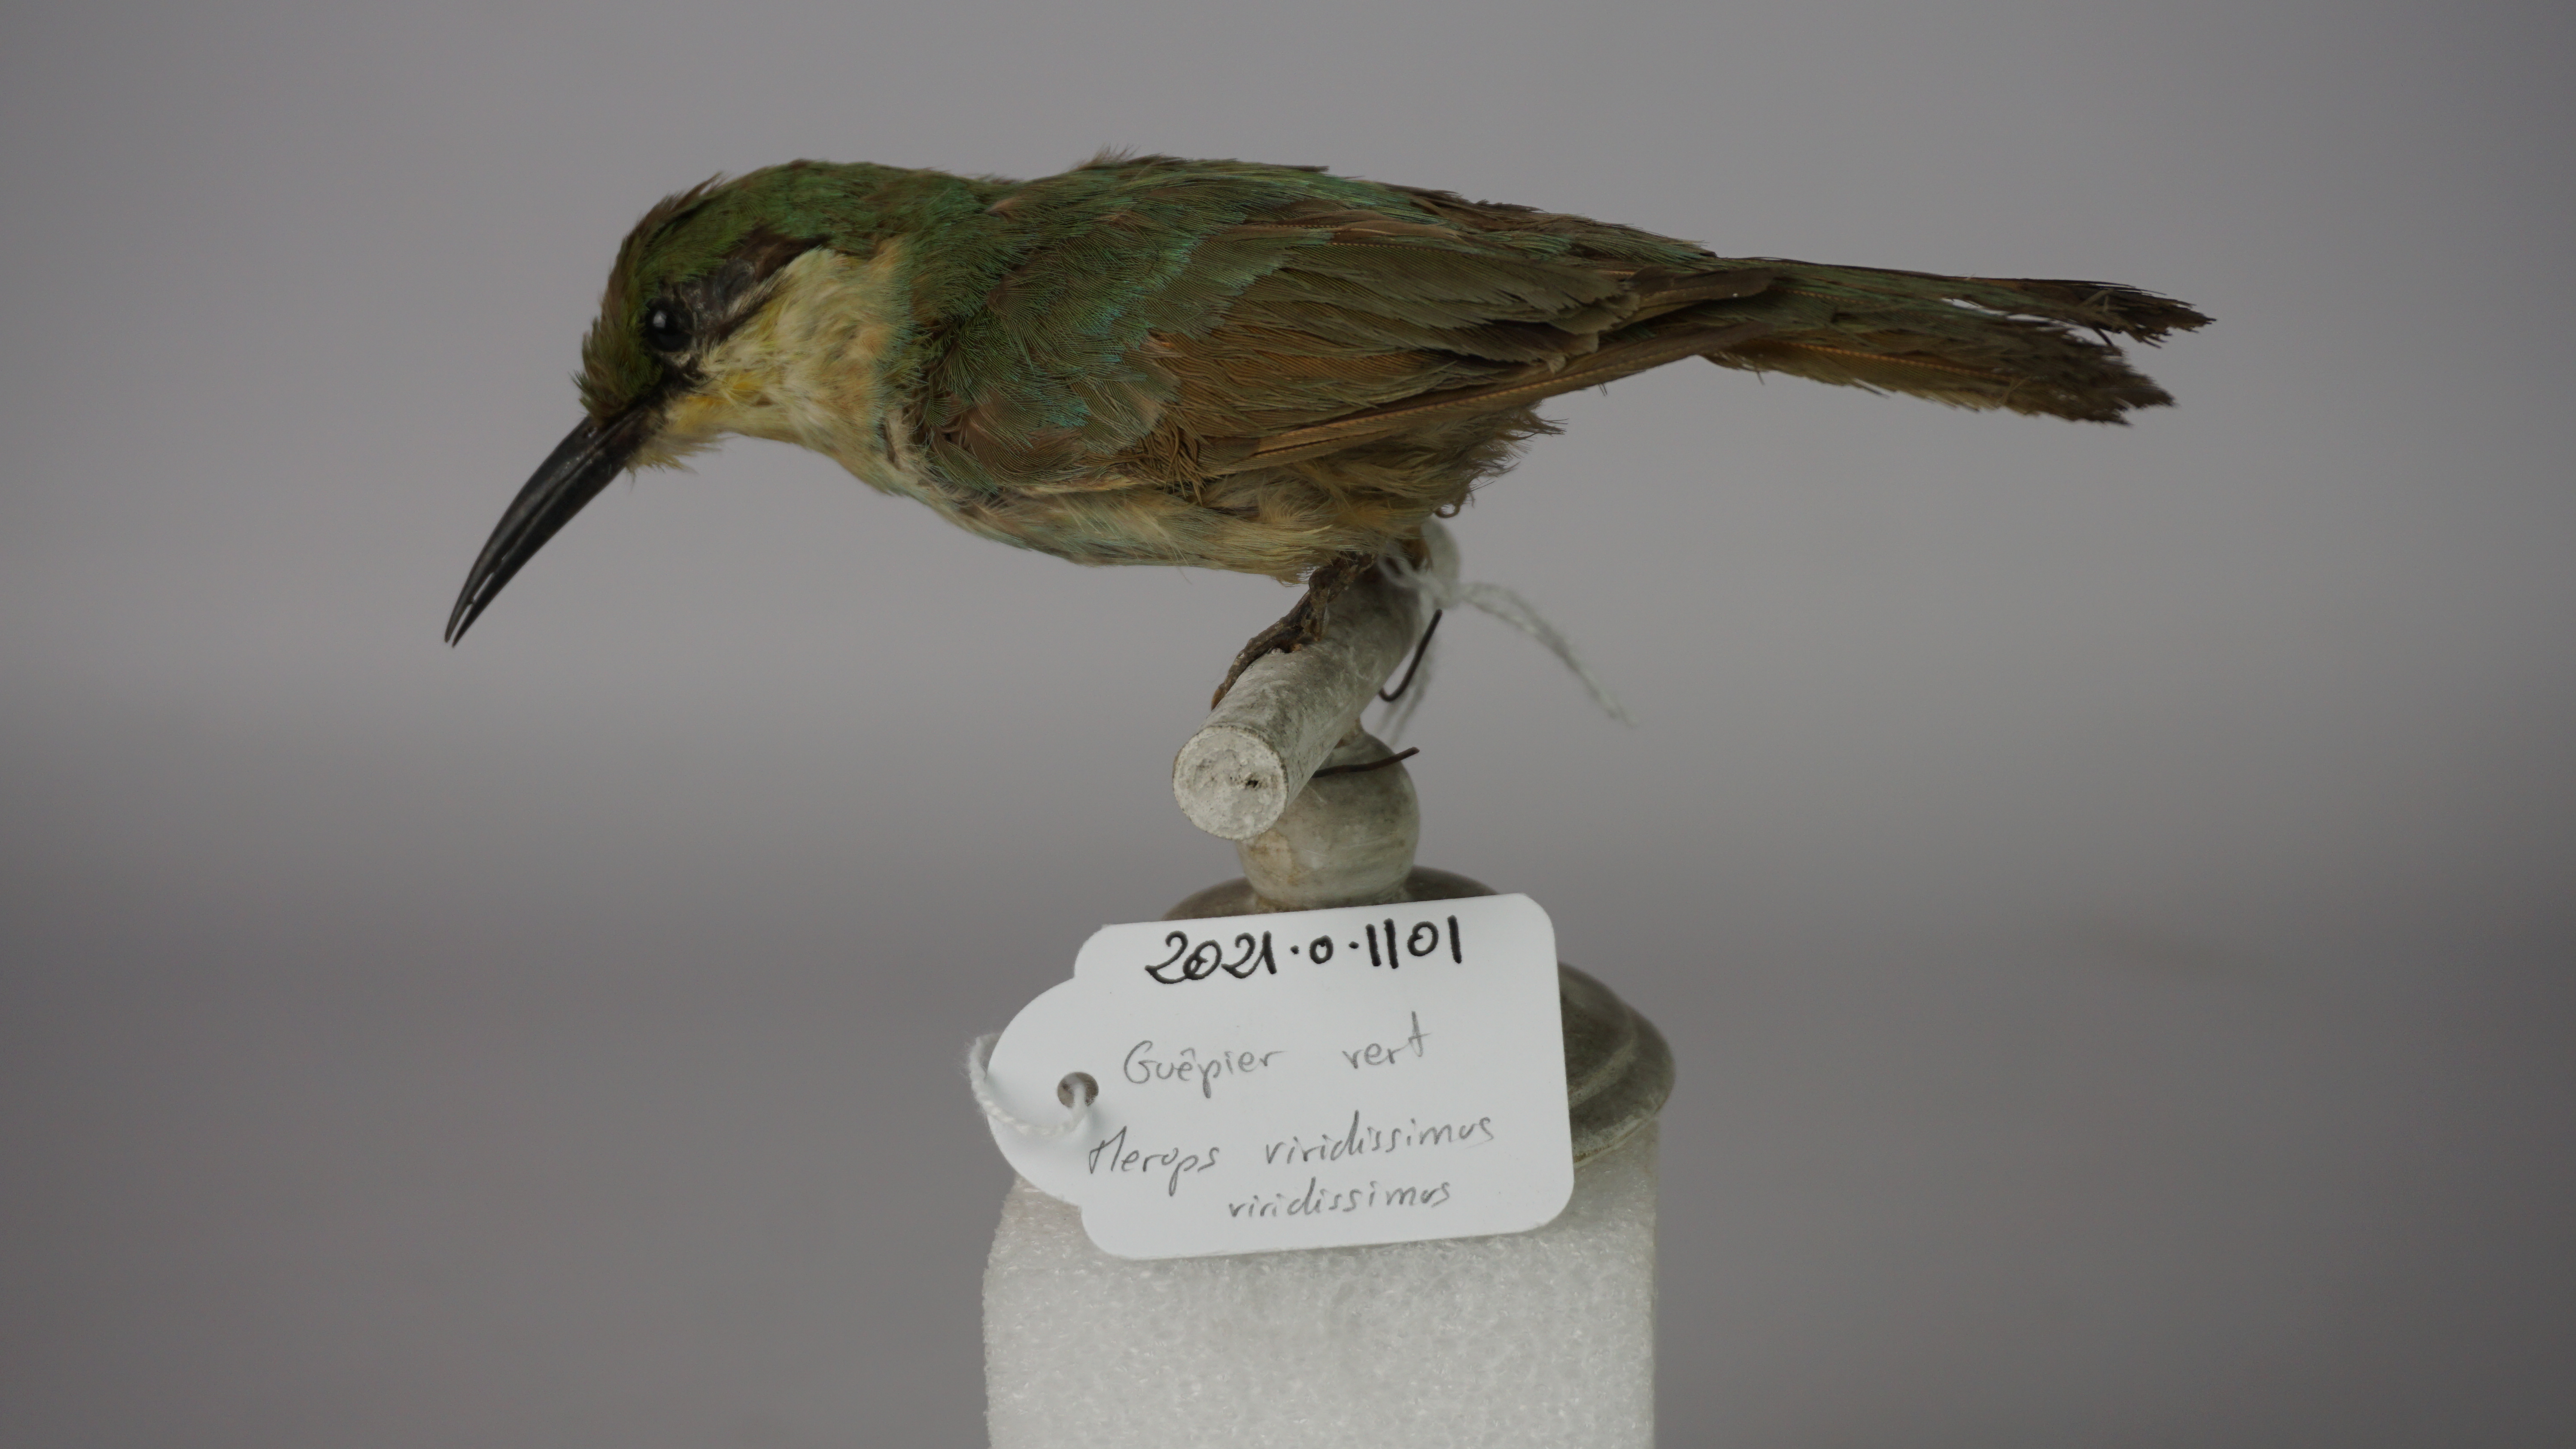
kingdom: Animalia
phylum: Chordata
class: Aves
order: Coraciiformes
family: Meropidae
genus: Merops
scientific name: Merops viridissimus
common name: African green bee-eater
